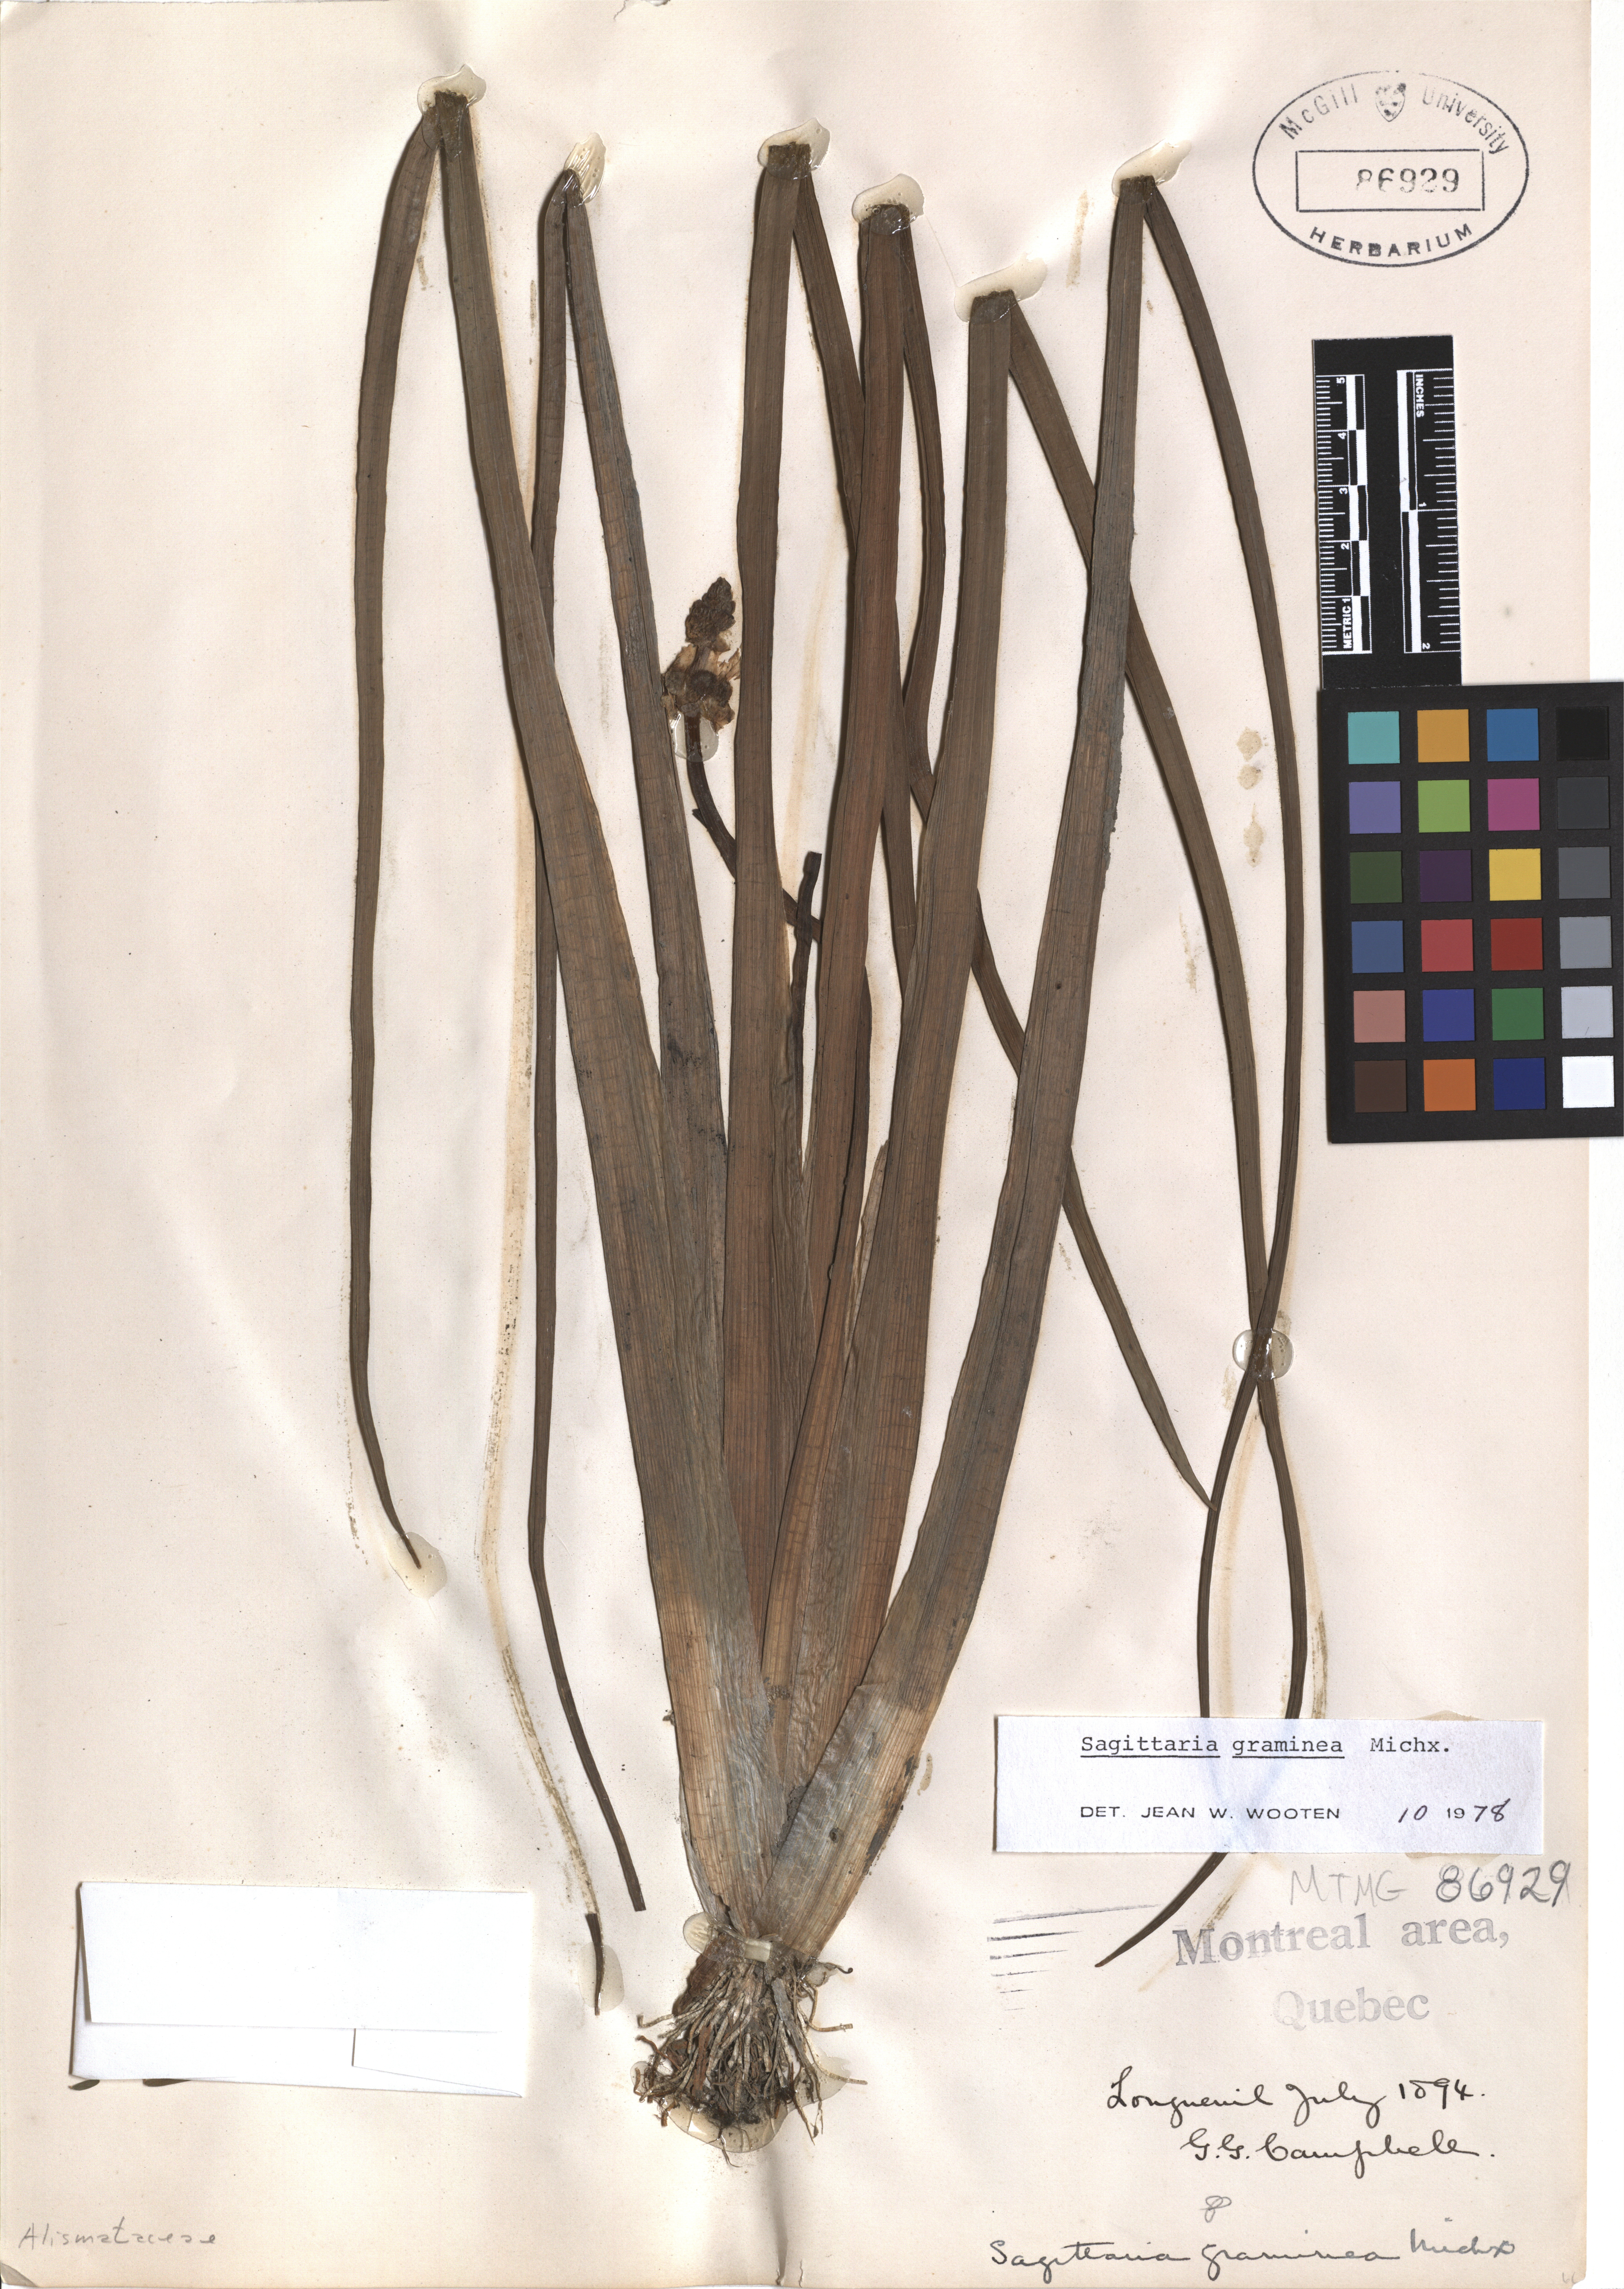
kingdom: Plantae
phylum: Tracheophyta
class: Liliopsida
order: Alismatales
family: Alismataceae
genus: Sagittaria
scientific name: Sagittaria graminea
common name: Grass-leaved arrowhead
